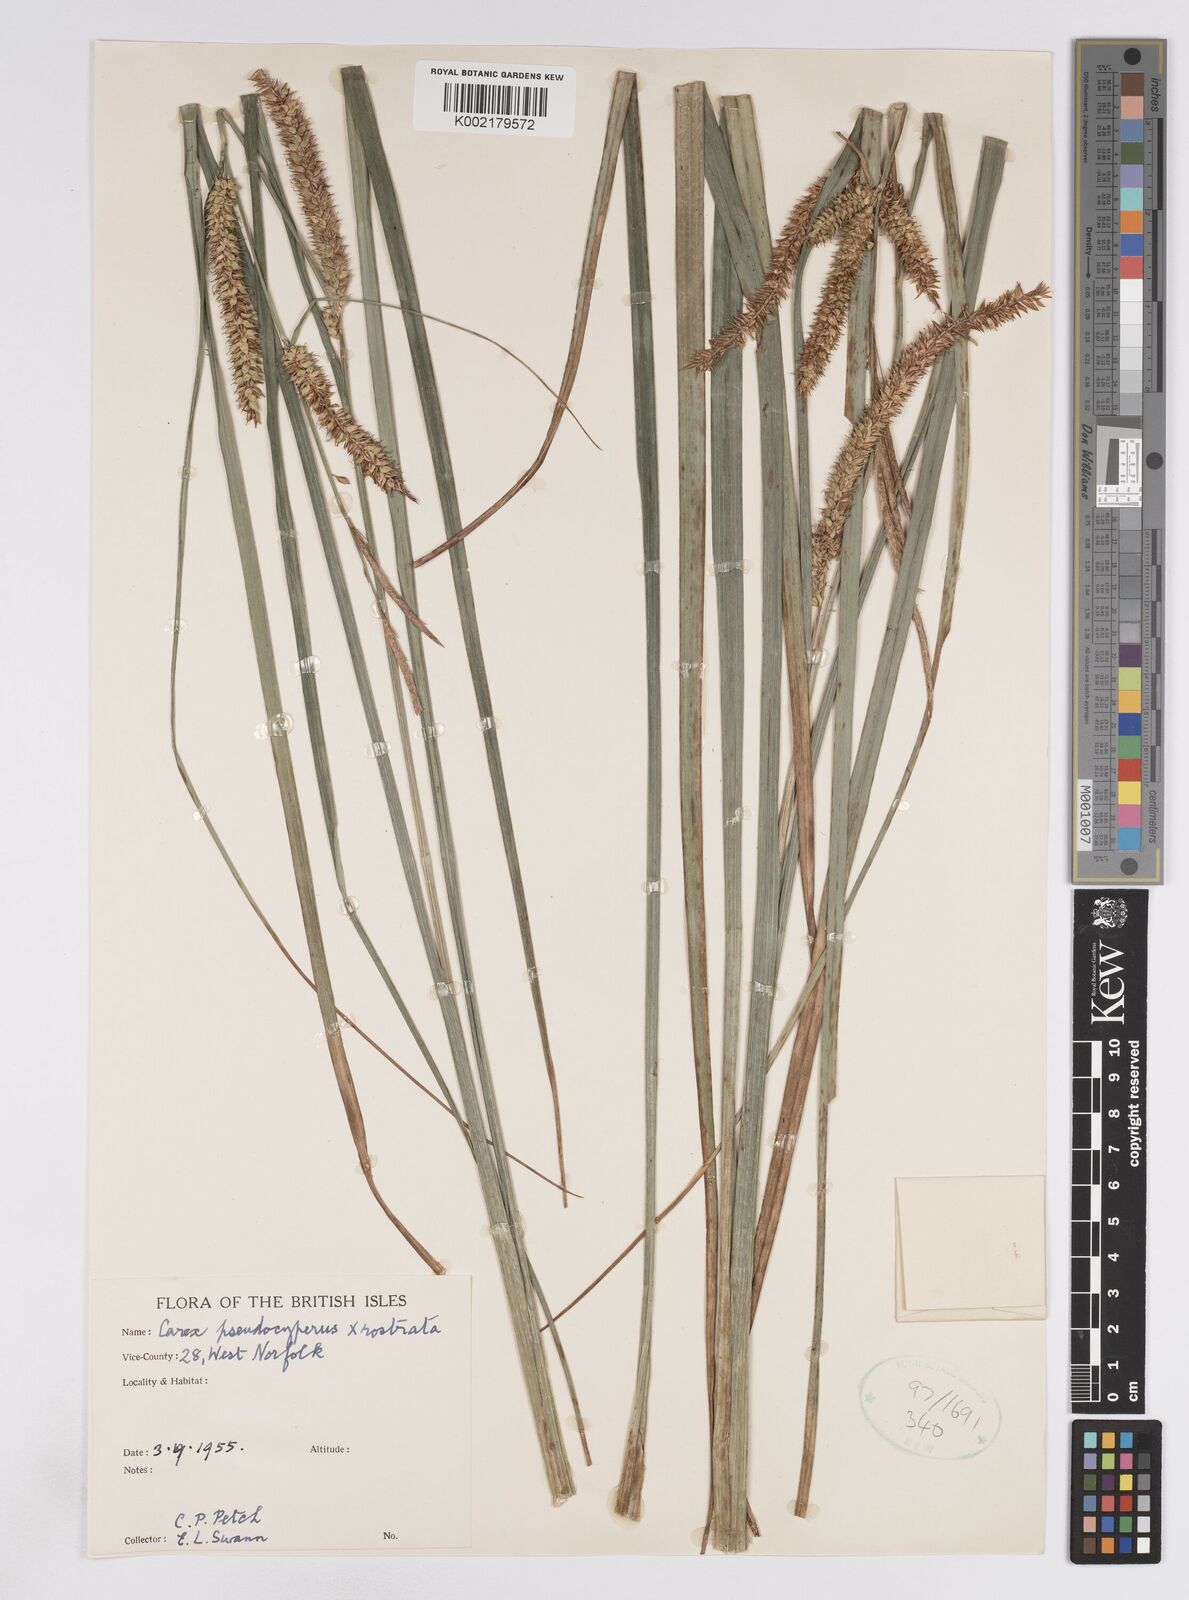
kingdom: Plantae
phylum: Tracheophyta
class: Liliopsida
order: Poales
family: Cyperaceae
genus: Carex
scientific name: Carex pseudocyperus
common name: Cyperus sedge
